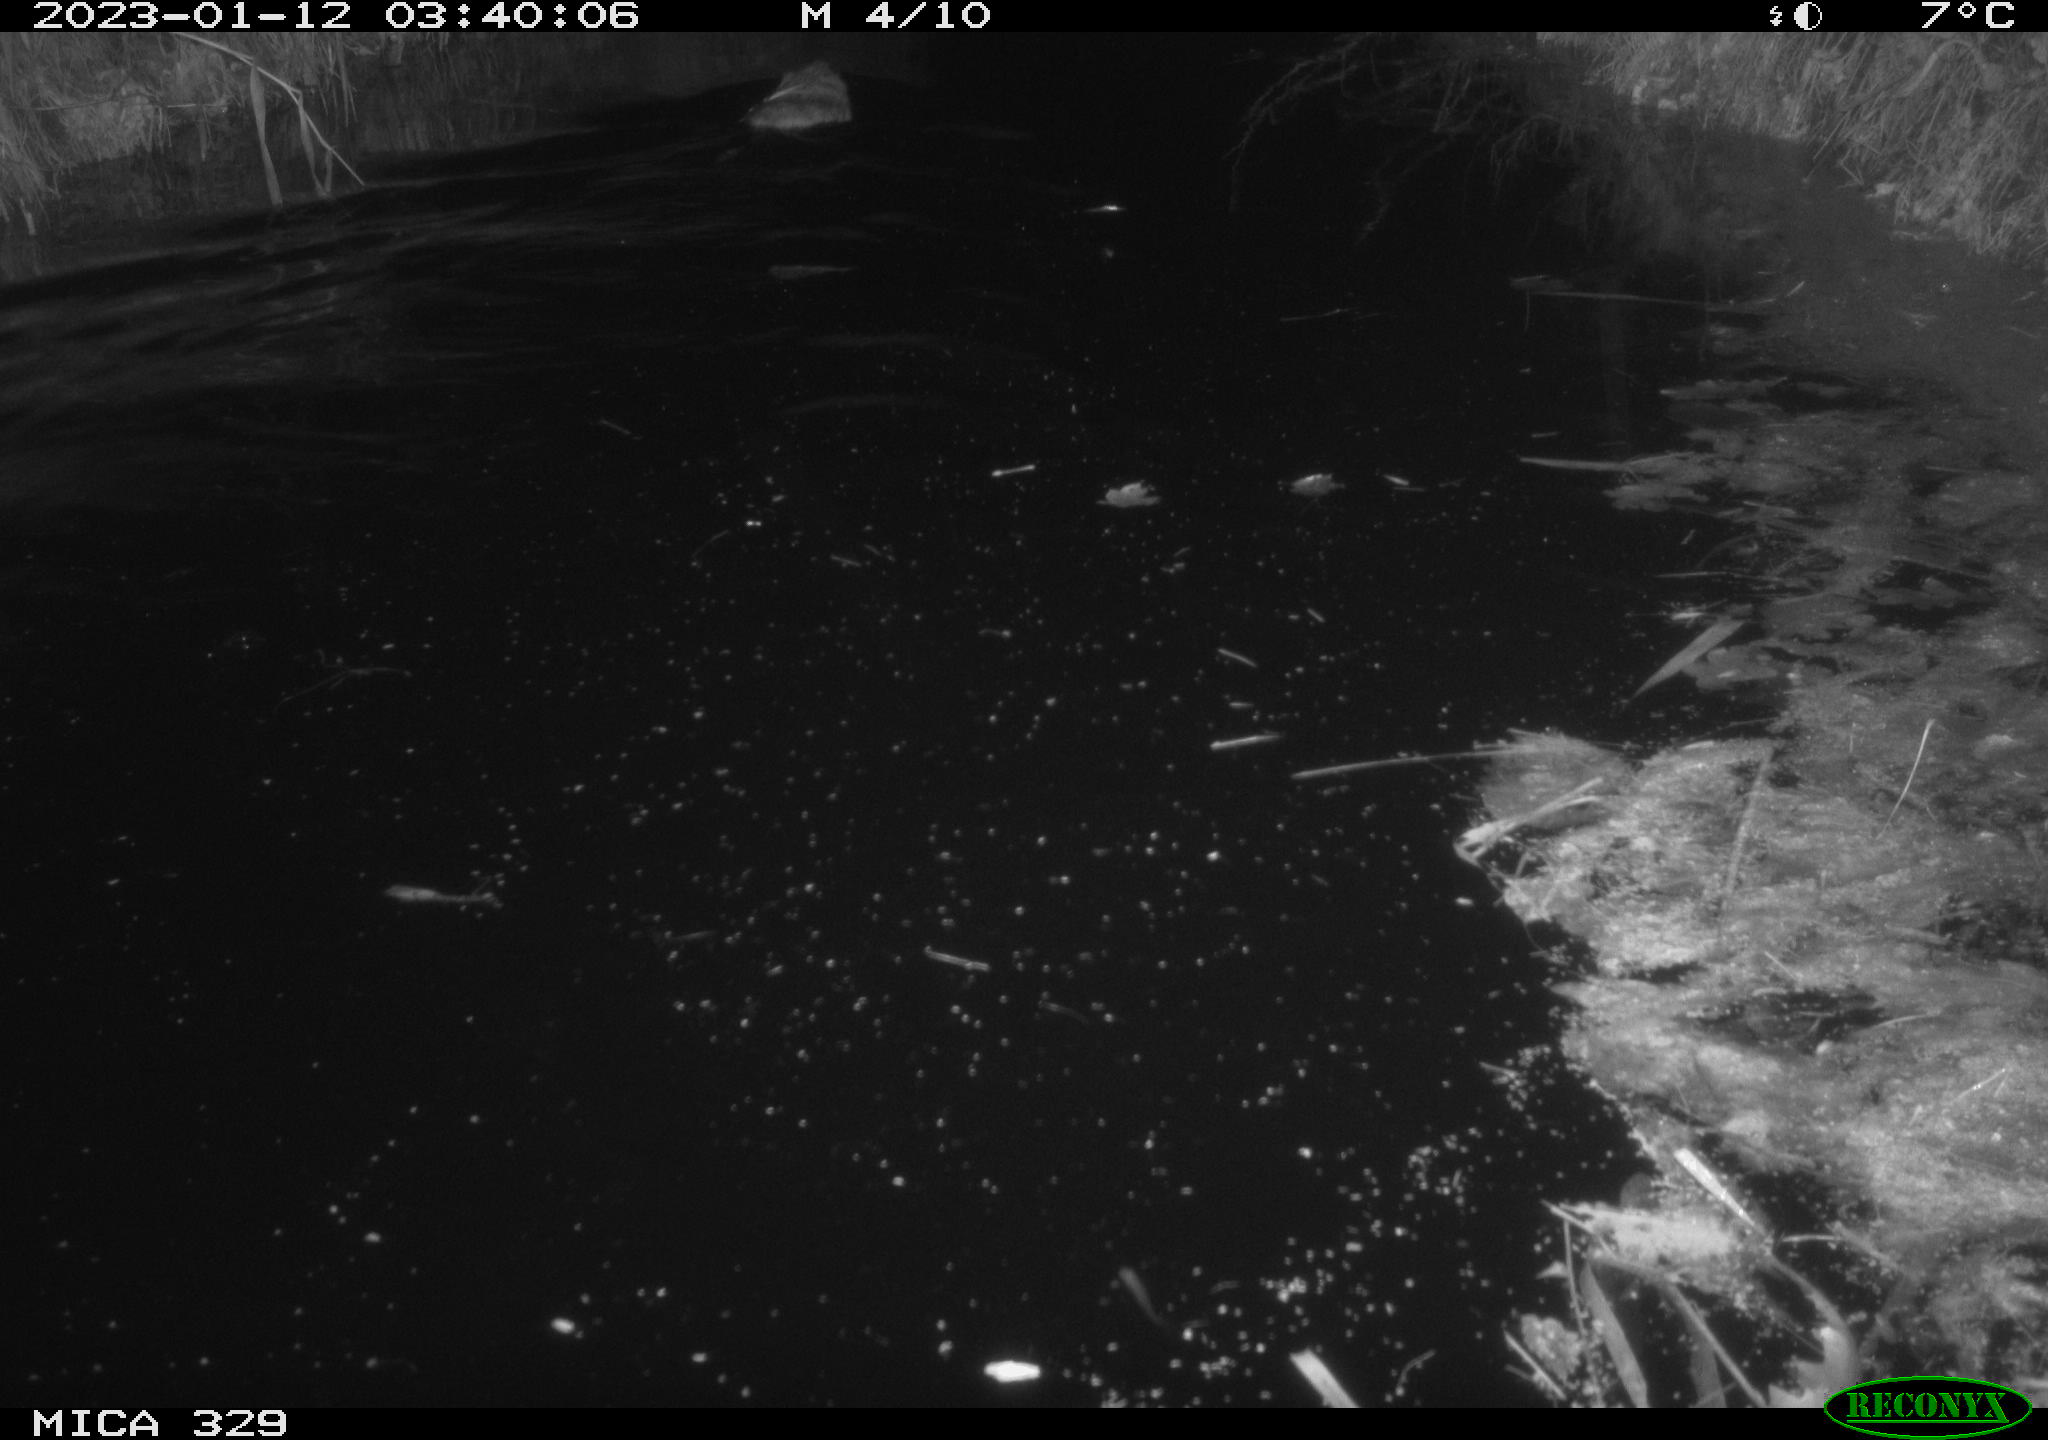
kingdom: Animalia
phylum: Chordata
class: Mammalia
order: Rodentia
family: Cricetidae
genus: Ondatra
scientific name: Ondatra zibethicus
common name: Muskrat
